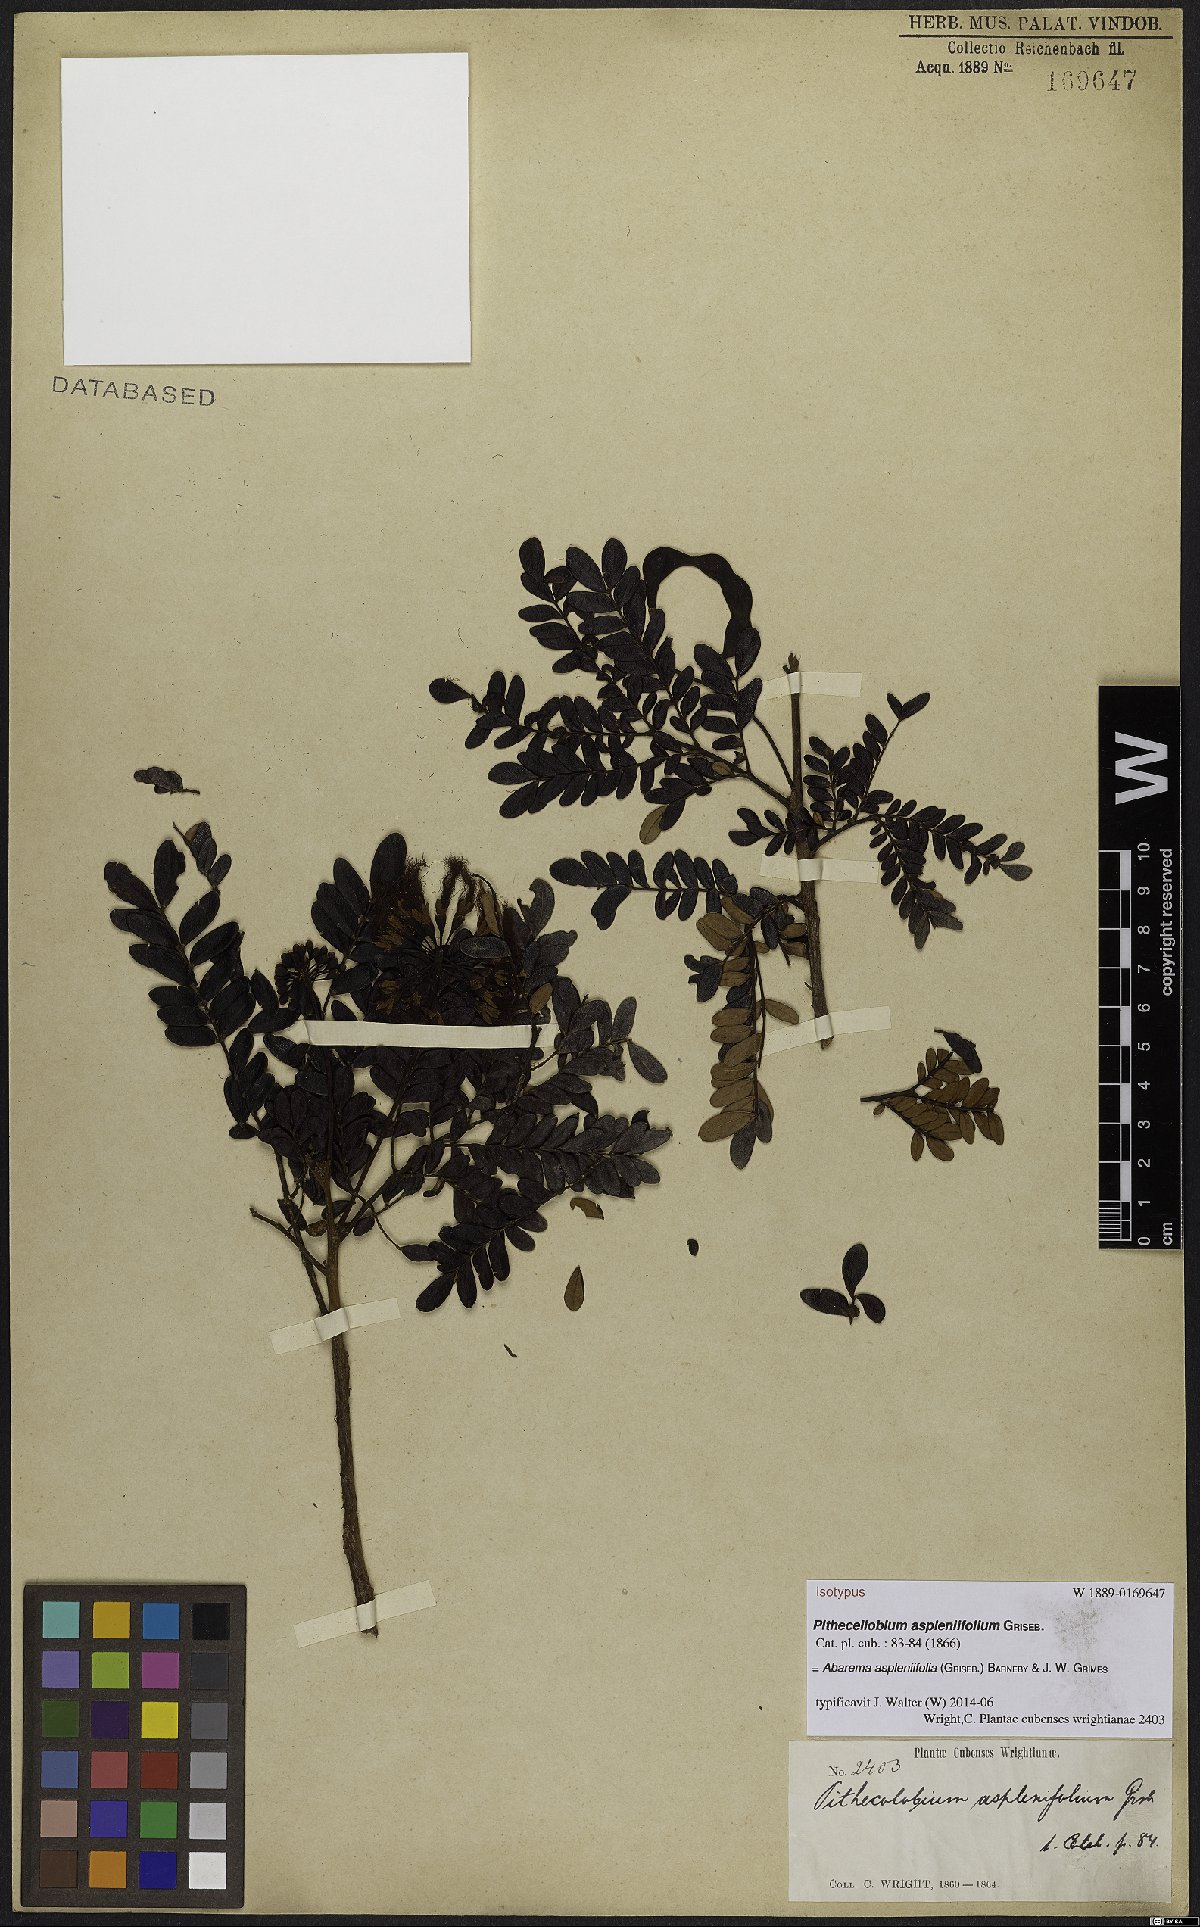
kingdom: Plantae
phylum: Tracheophyta
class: Magnoliopsida
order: Fabales
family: Fabaceae
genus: Jupunba
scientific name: Jupunba asplenifolia
